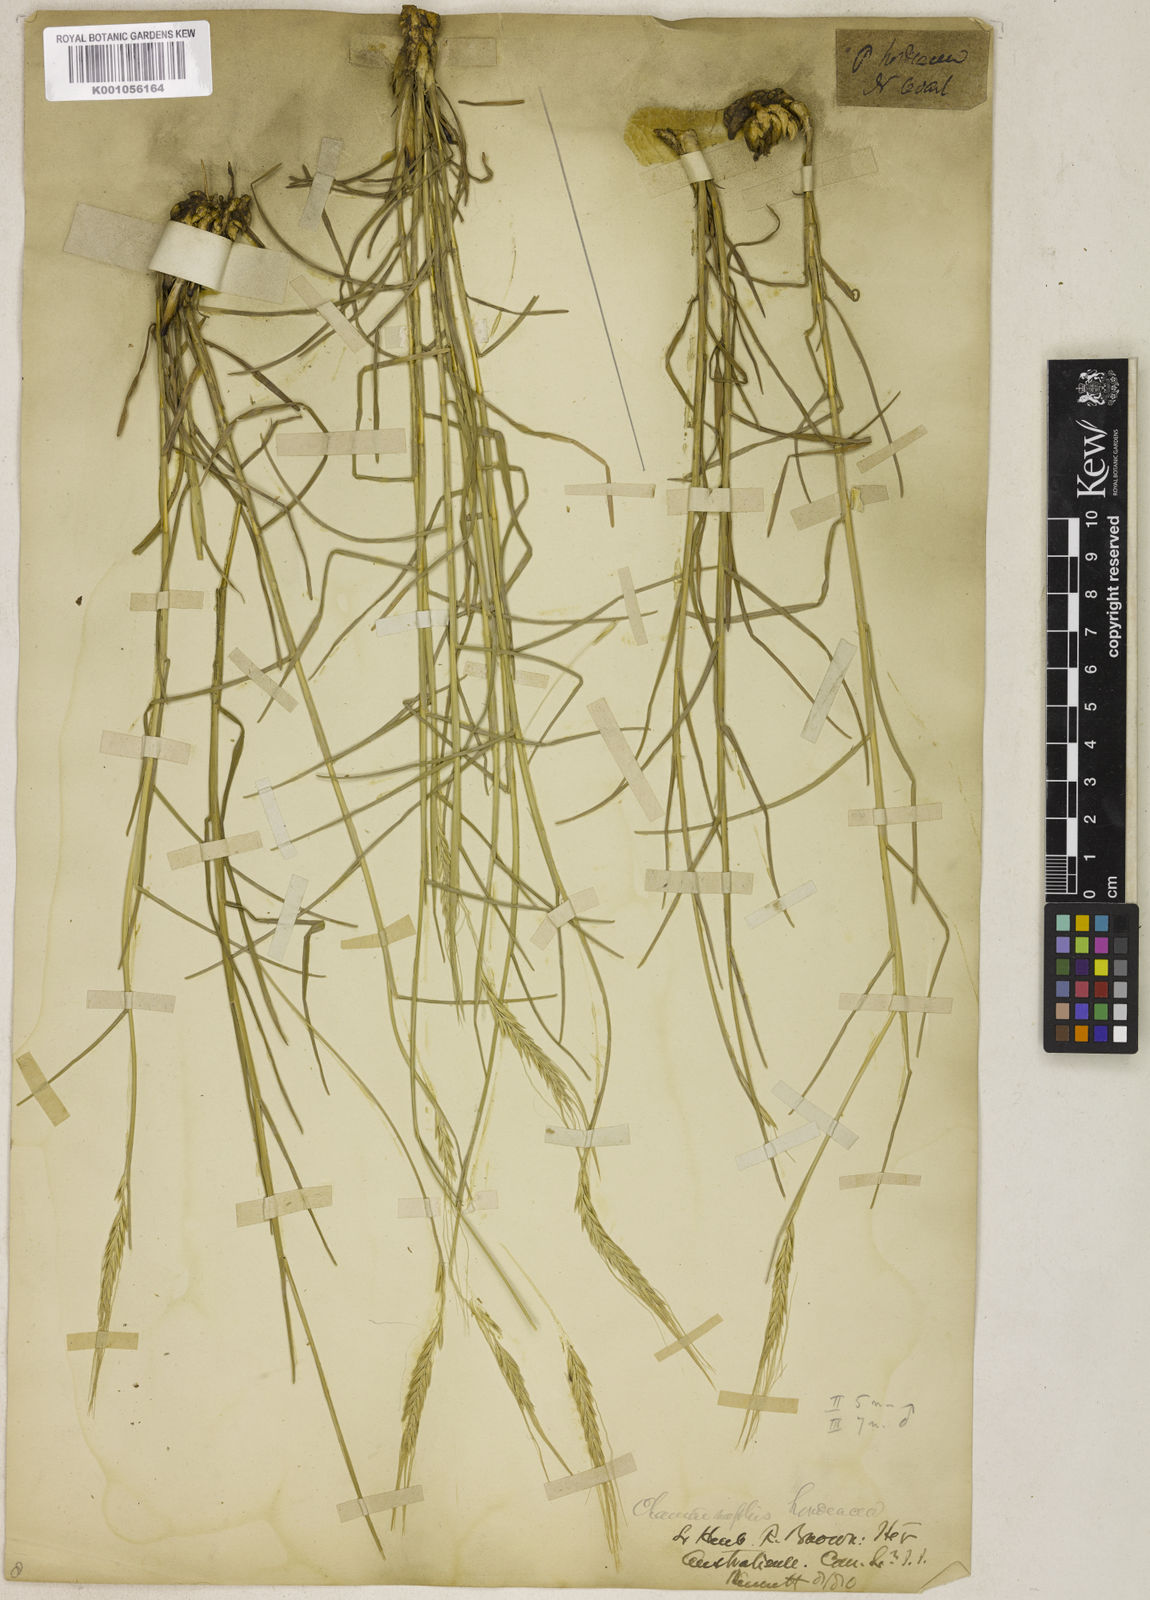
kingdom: Plantae
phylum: Tracheophyta
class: Liliopsida
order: Poales
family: Poaceae
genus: Chamaeraphis
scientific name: Chamaeraphis hordeacea
